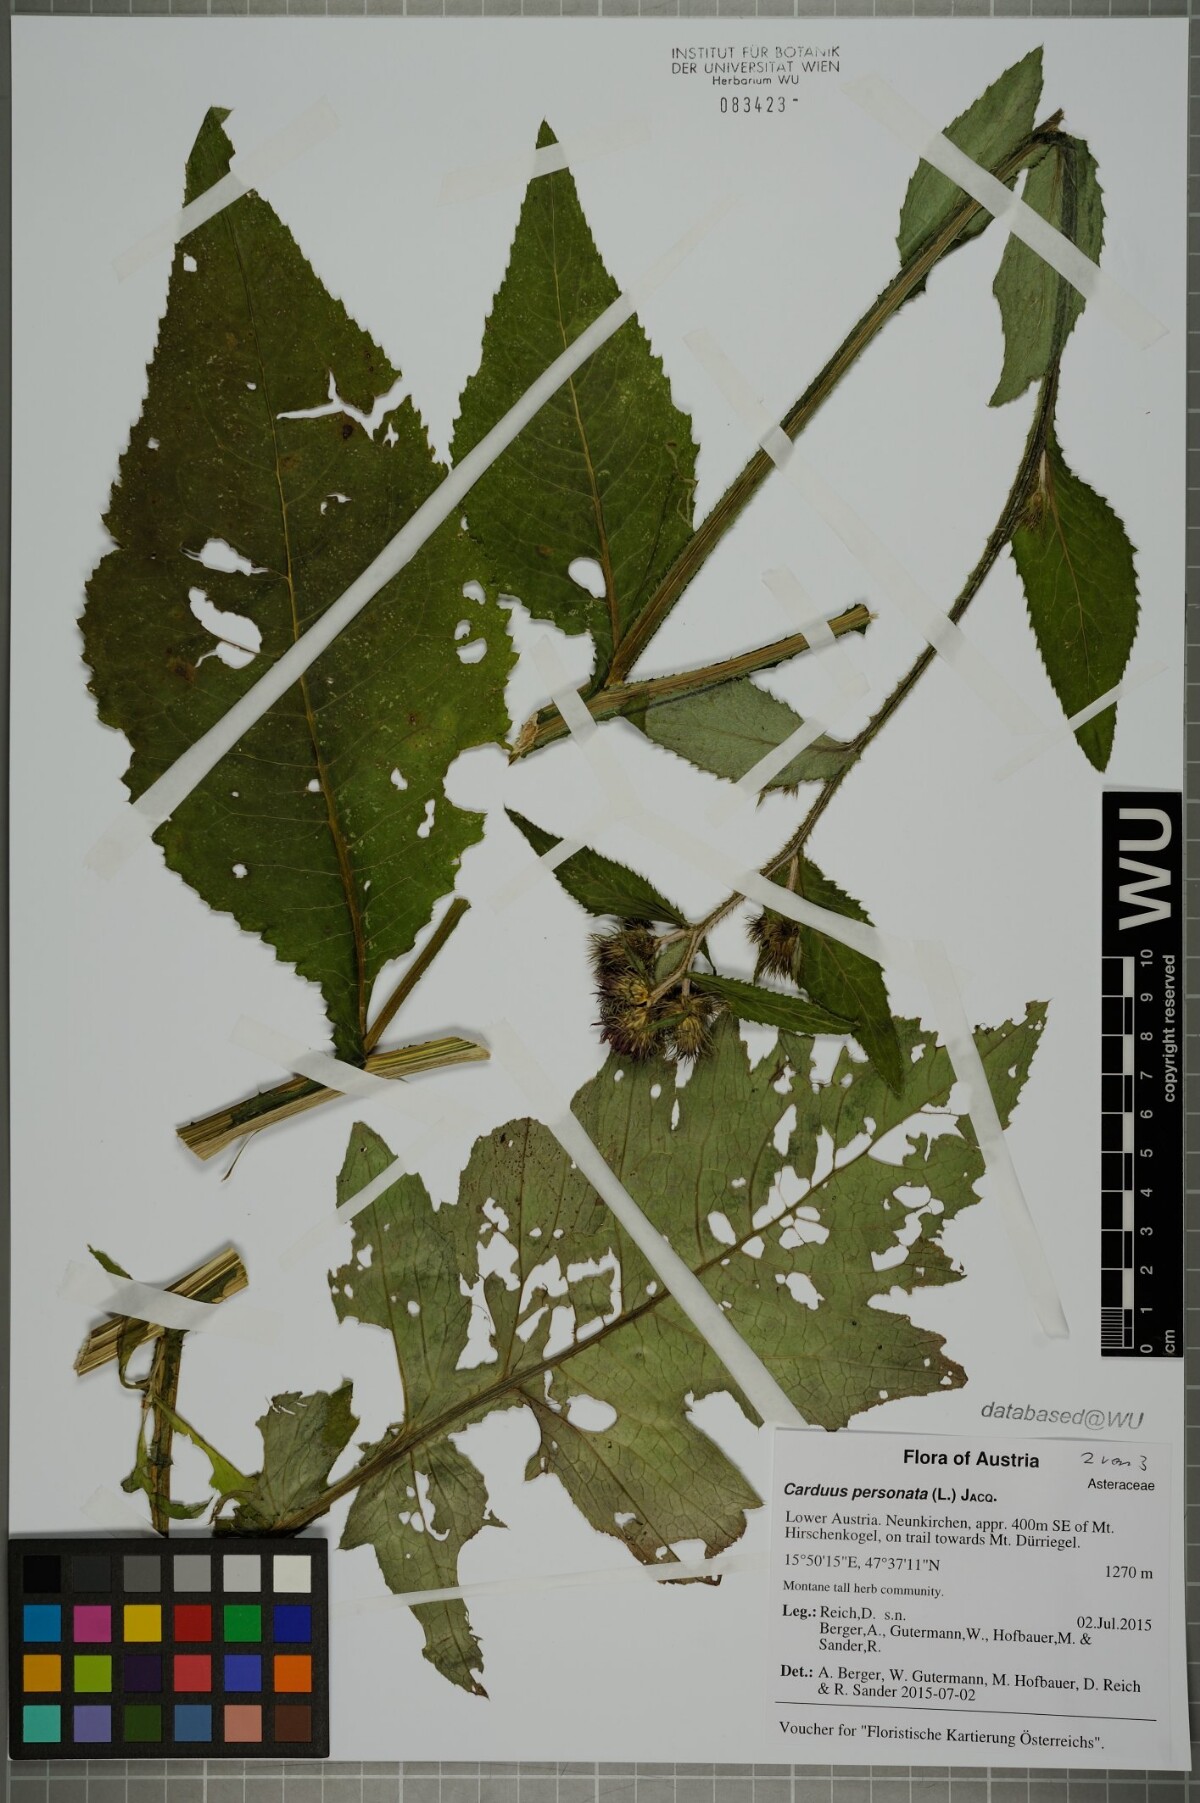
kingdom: Plantae
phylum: Tracheophyta
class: Magnoliopsida
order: Asterales
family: Asteraceae
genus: Carduus
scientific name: Carduus personata
